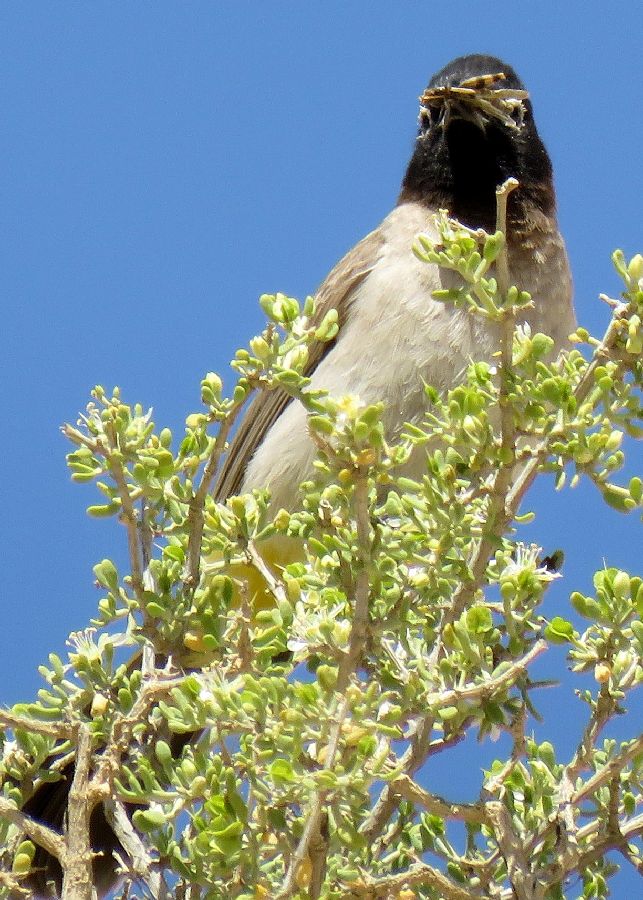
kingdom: Animalia
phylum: Chordata
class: Aves
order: Passeriformes
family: Pycnonotidae
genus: Pycnonotus
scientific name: Pycnonotus xanthopygos
